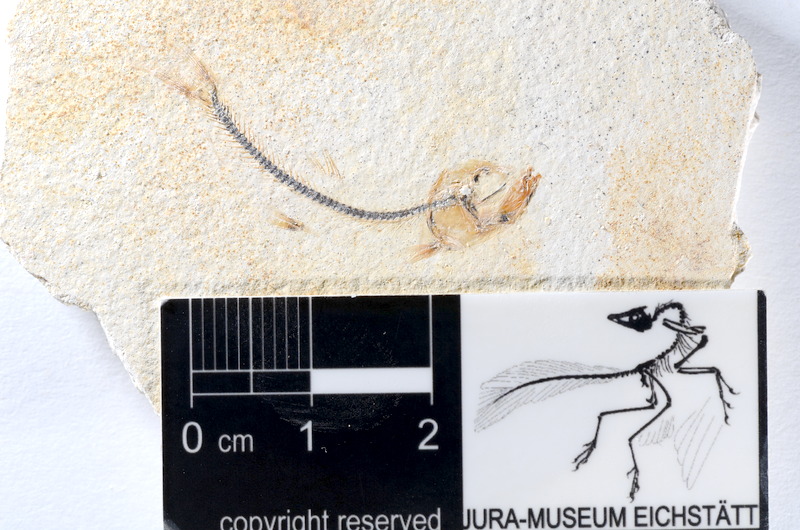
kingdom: Animalia
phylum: Chordata
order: Salmoniformes
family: Orthogonikleithridae
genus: Orthogonikleithrus
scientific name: Orthogonikleithrus hoelli
